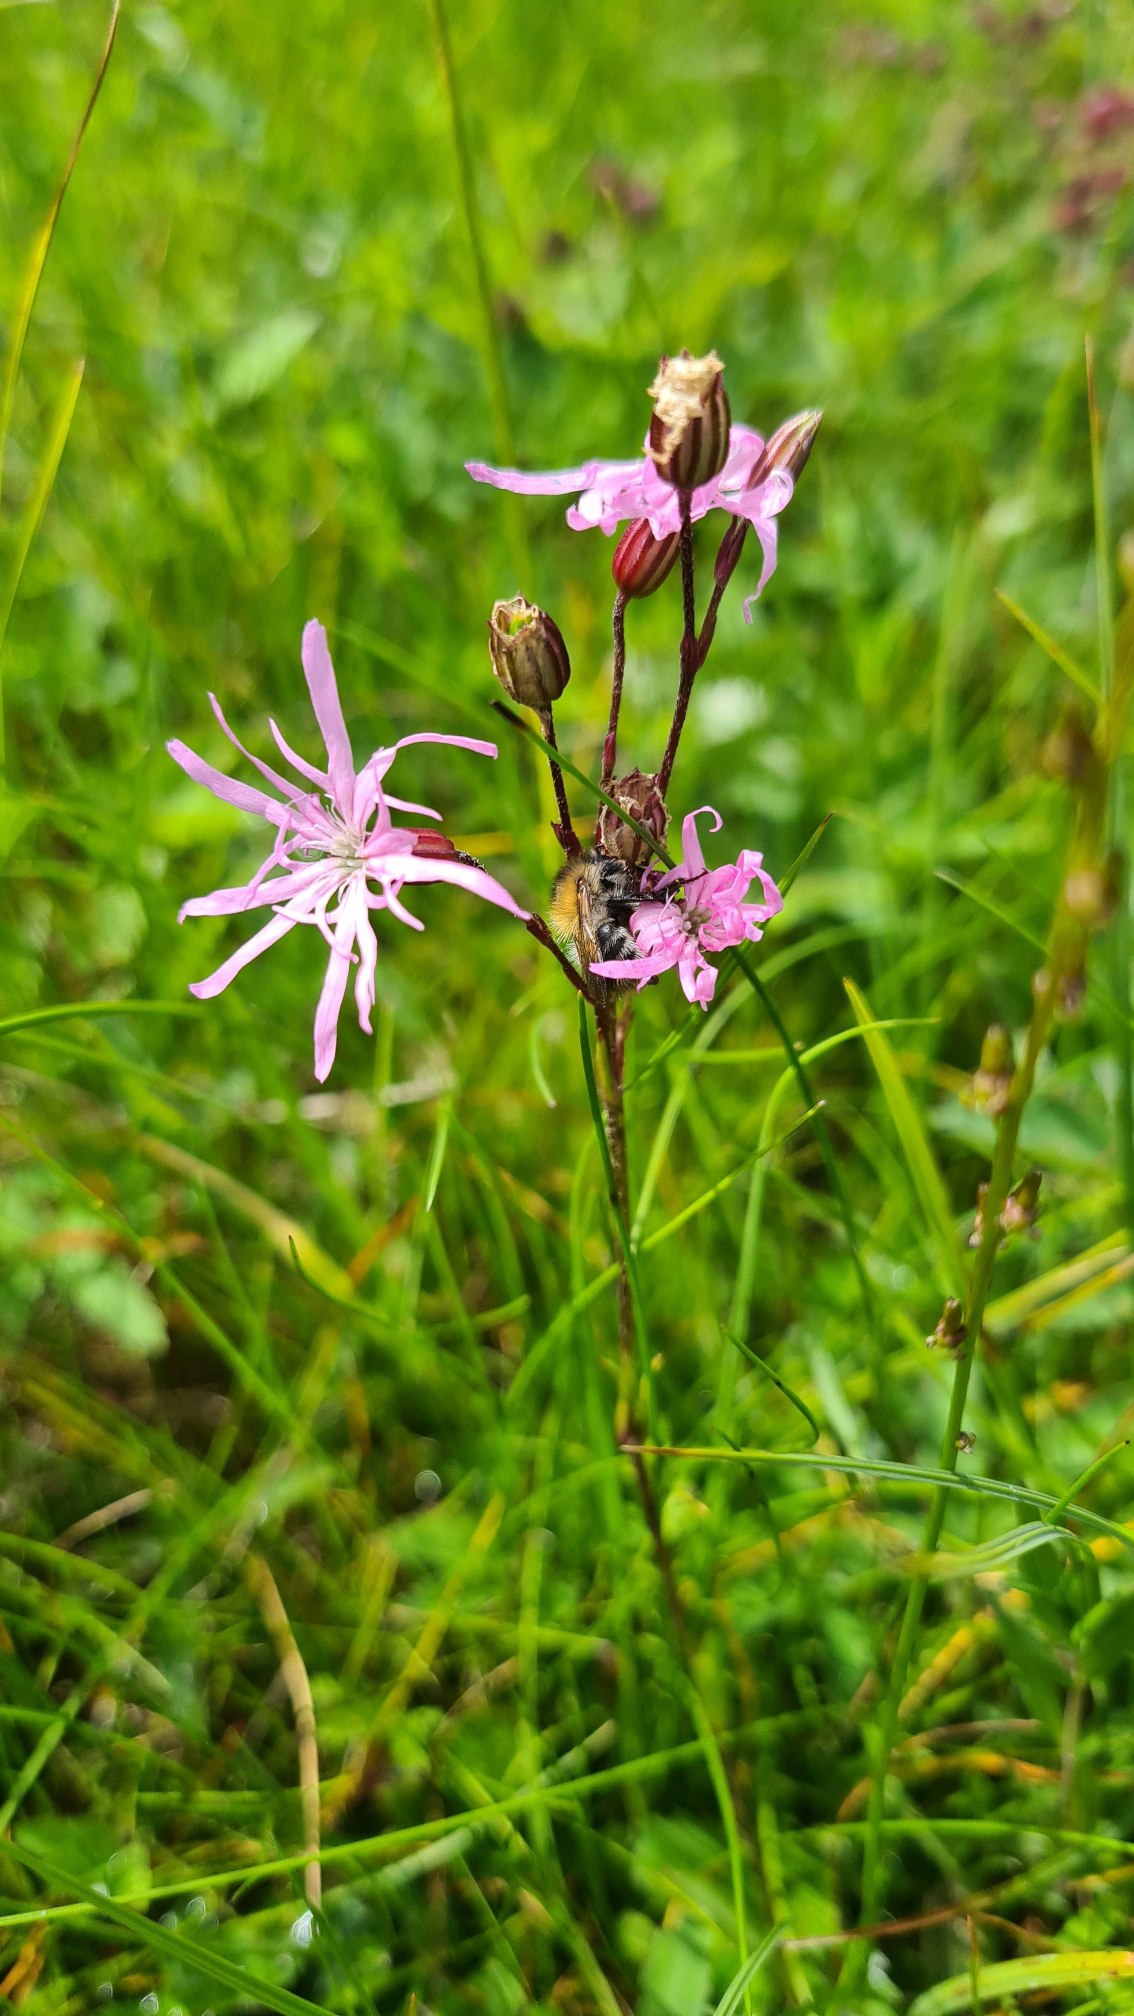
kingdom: Plantae
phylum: Tracheophyta
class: Magnoliopsida
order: Caryophyllales
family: Caryophyllaceae
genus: Silene
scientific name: Silene flos-cuculi
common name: Trævlekrone
